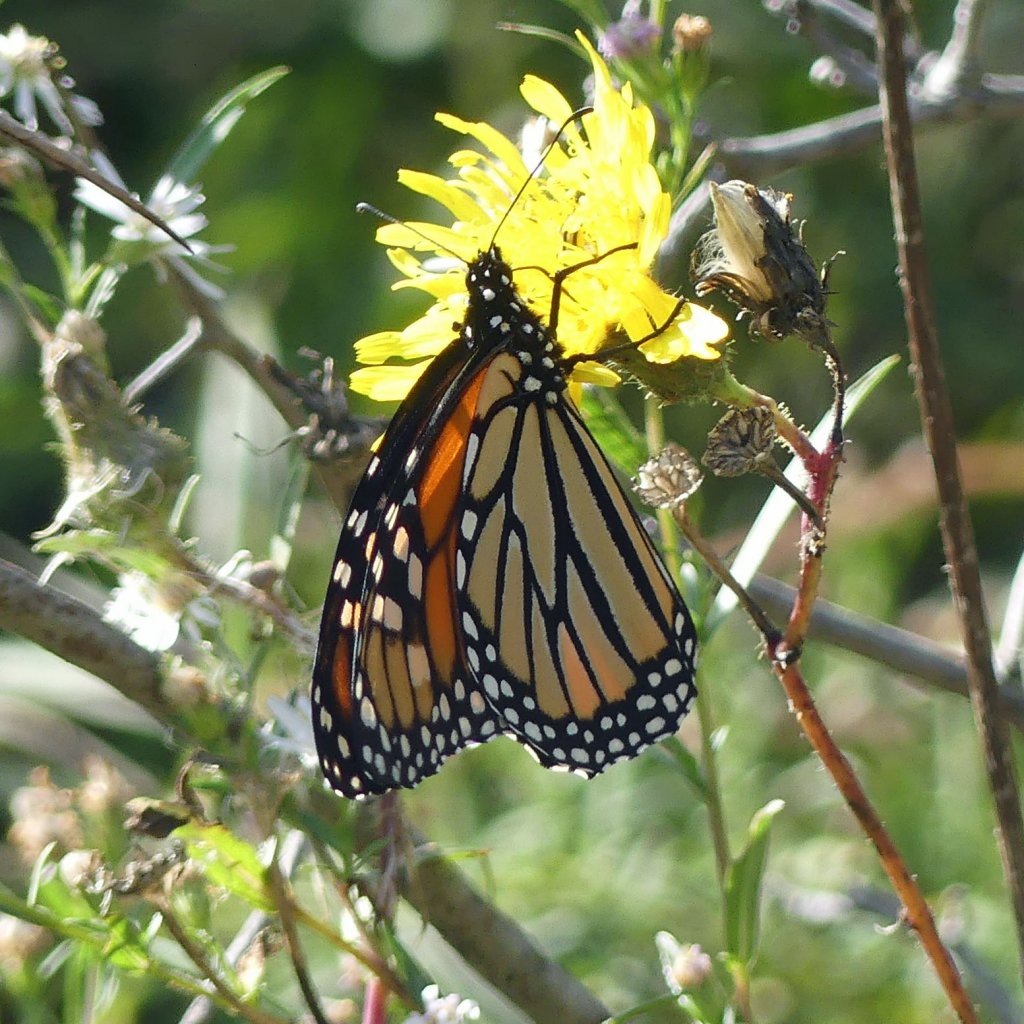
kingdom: Animalia
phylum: Arthropoda
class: Insecta
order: Lepidoptera
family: Nymphalidae
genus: Danaus
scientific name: Danaus plexippus
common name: Monarch
